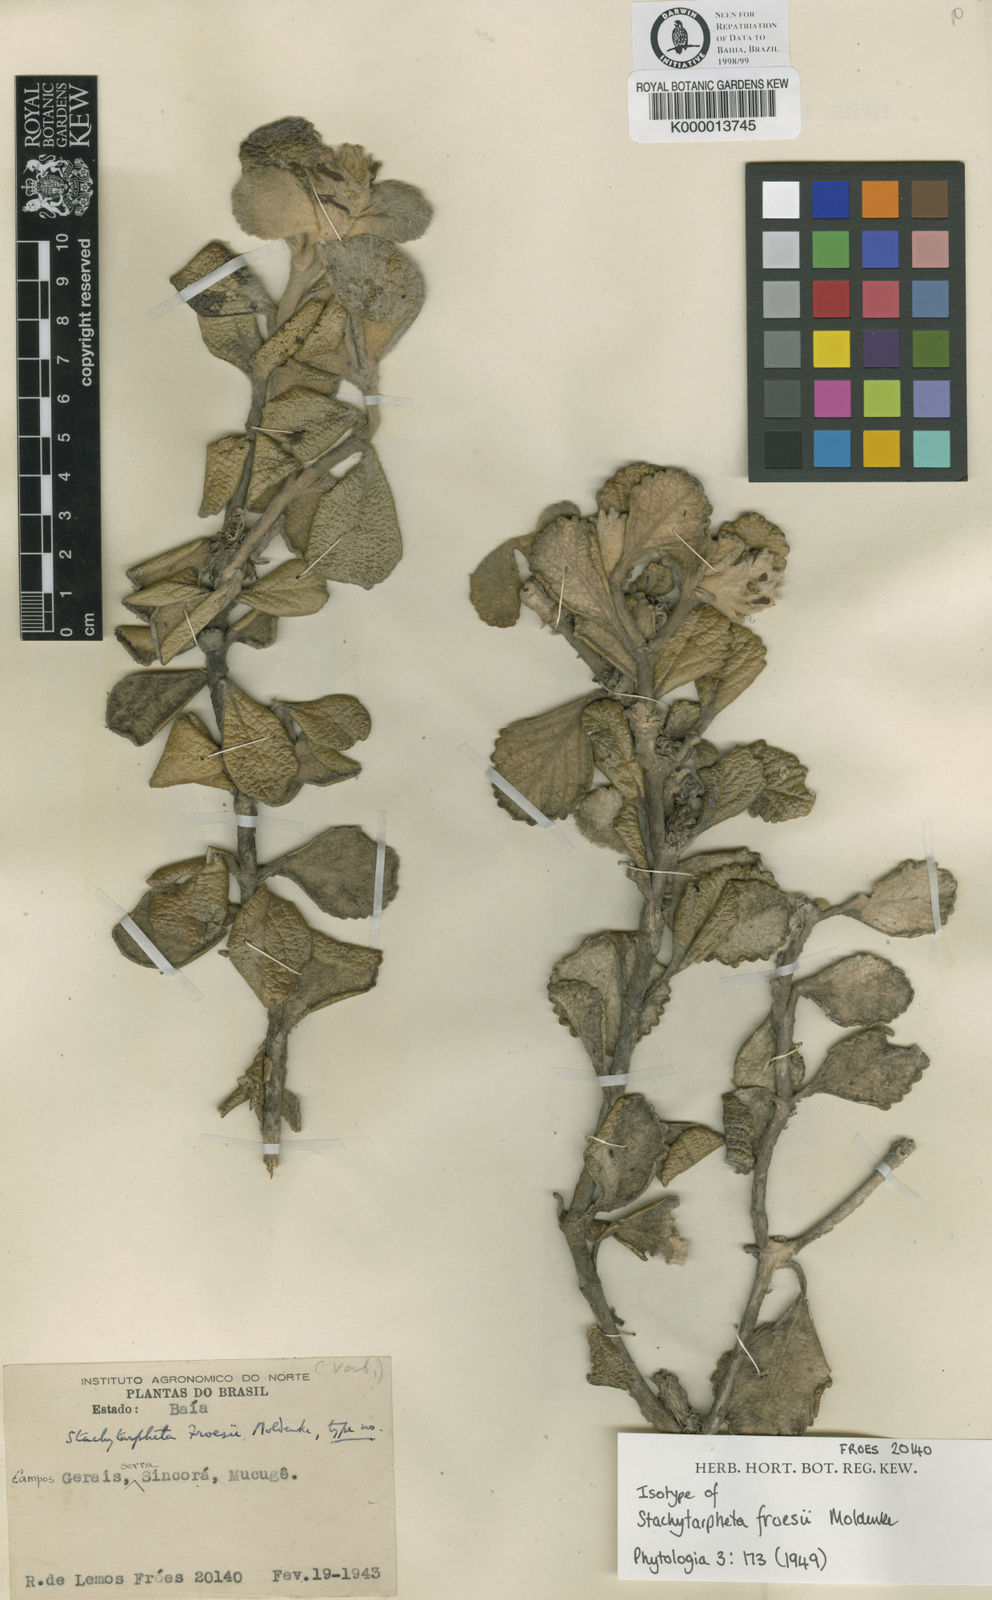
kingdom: Plantae
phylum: Tracheophyta
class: Magnoliopsida
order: Lamiales
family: Verbenaceae
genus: Stachytarpheta
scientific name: Stachytarpheta froesii
